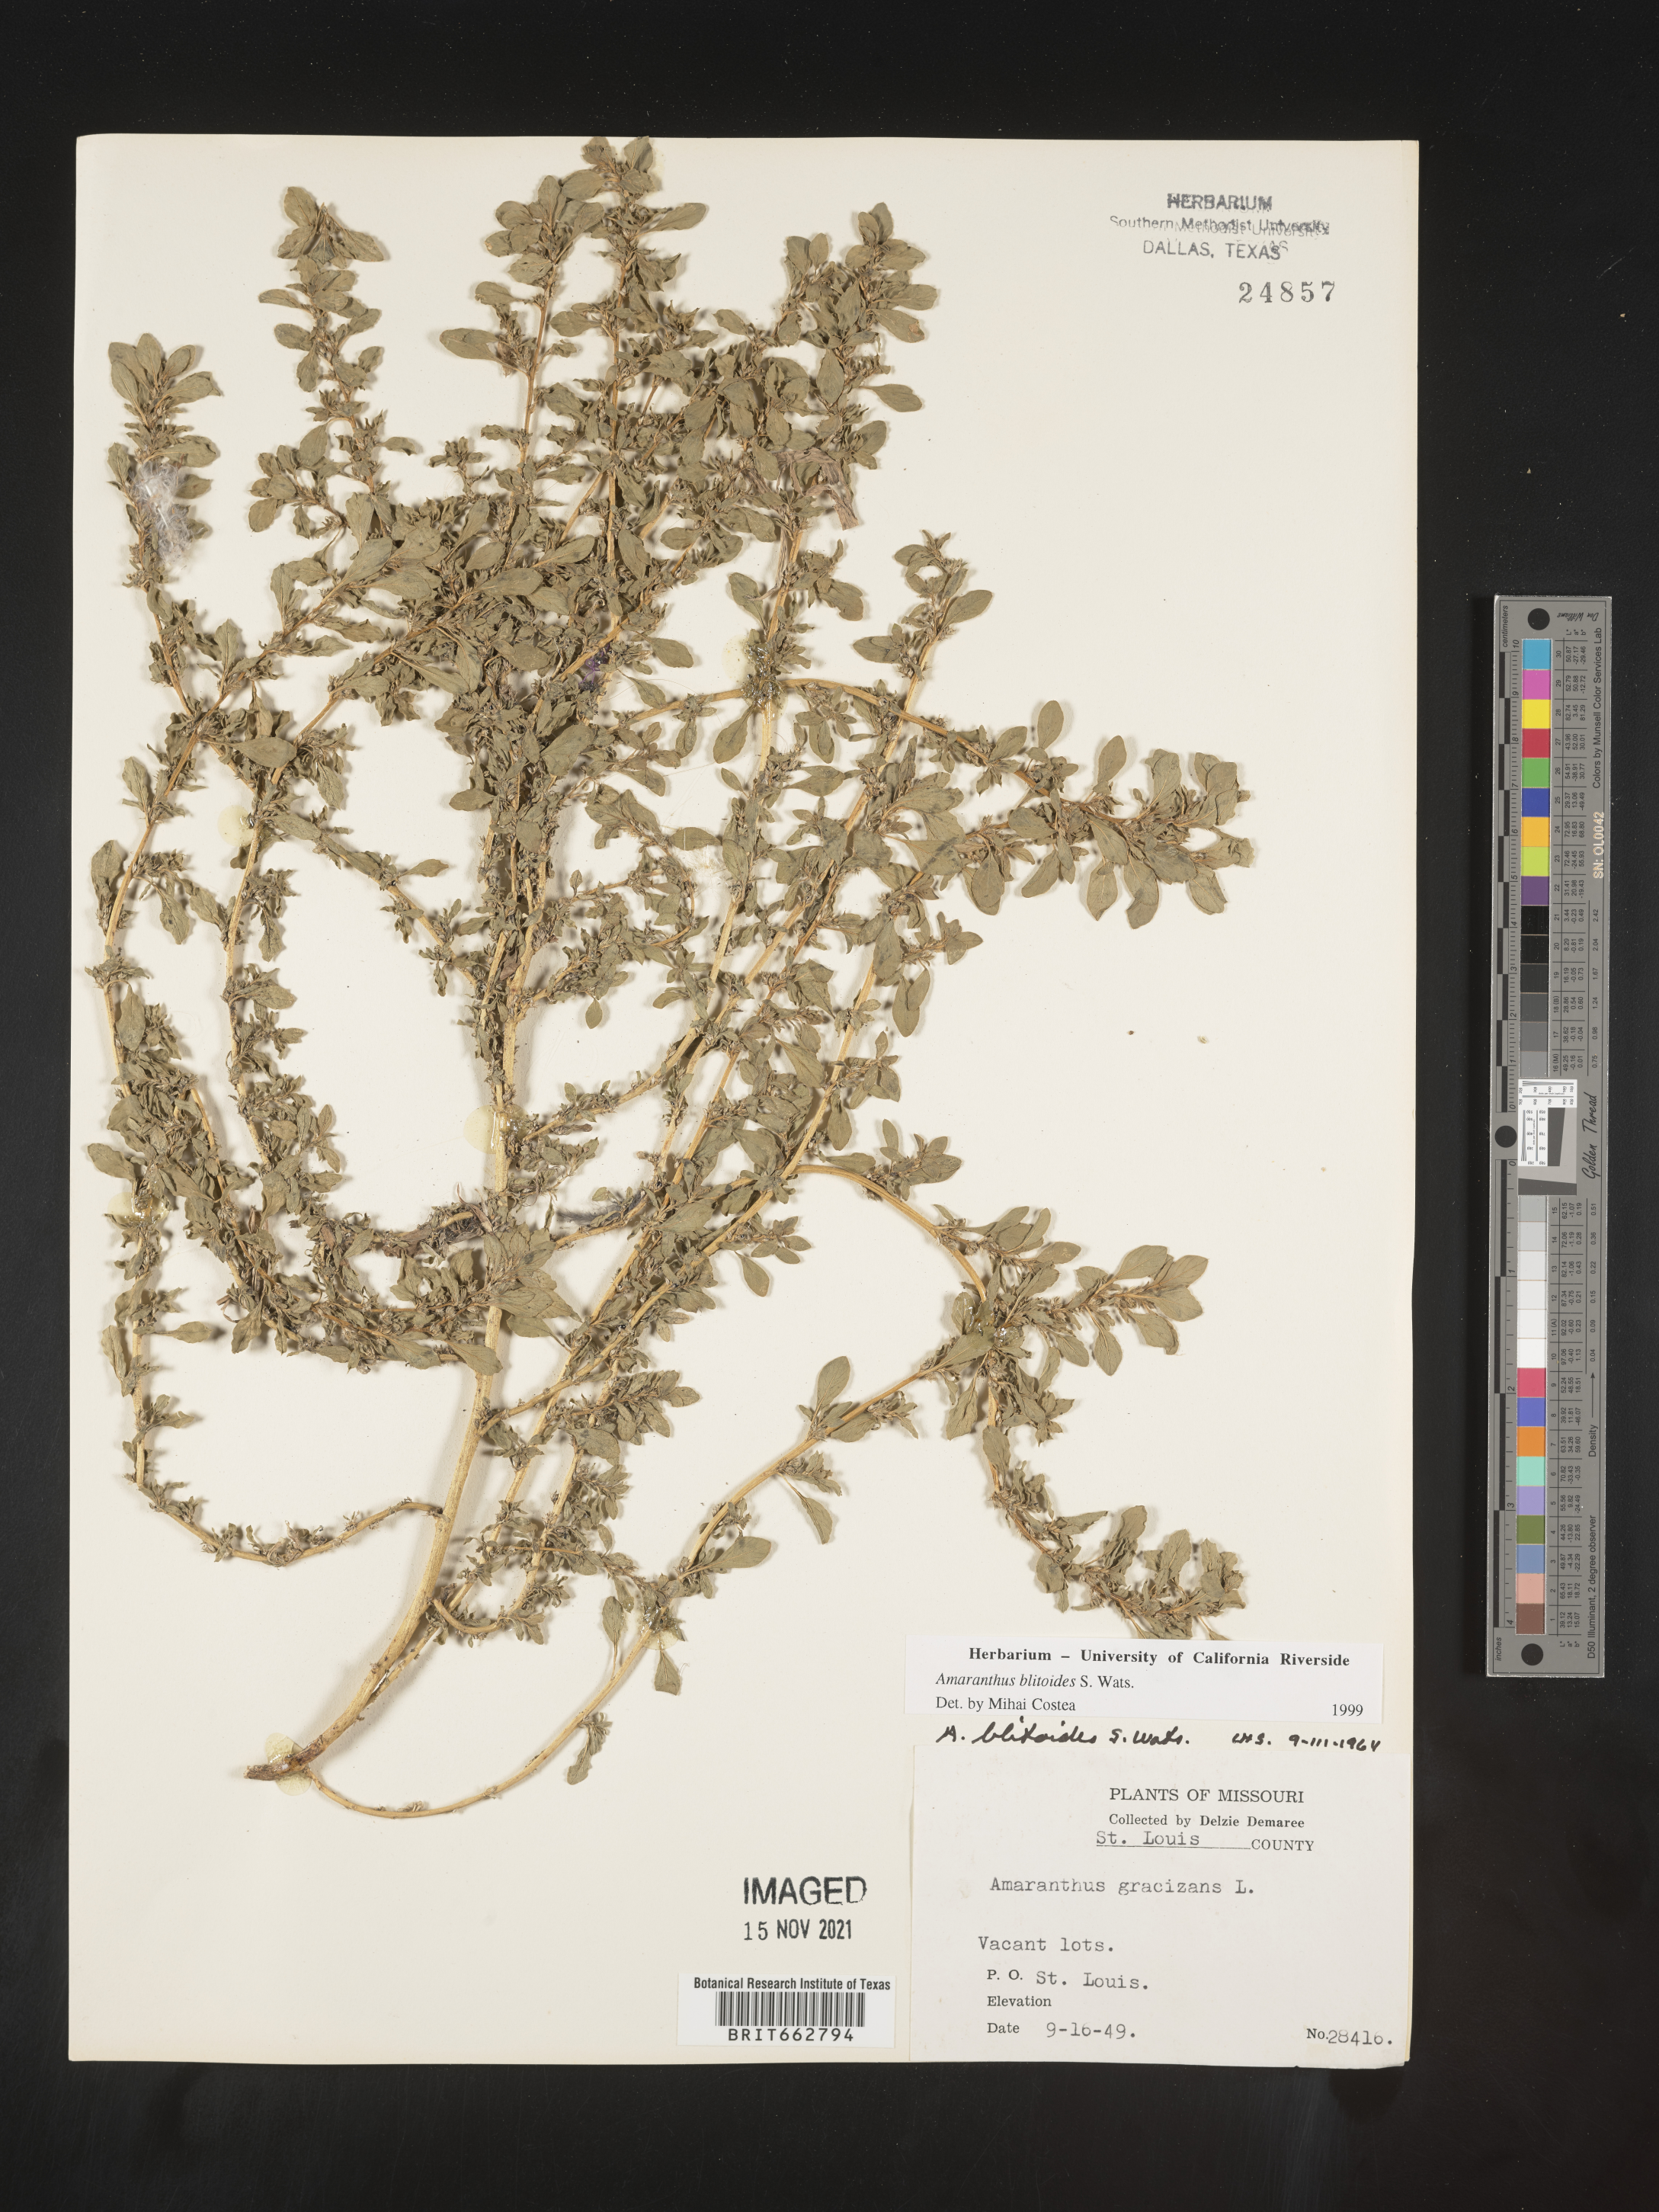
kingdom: Plantae
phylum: Tracheophyta
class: Magnoliopsida
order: Caryophyllales
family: Amaranthaceae
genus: Amaranthus
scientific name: Amaranthus blitoides
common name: Prostrate pigweed
